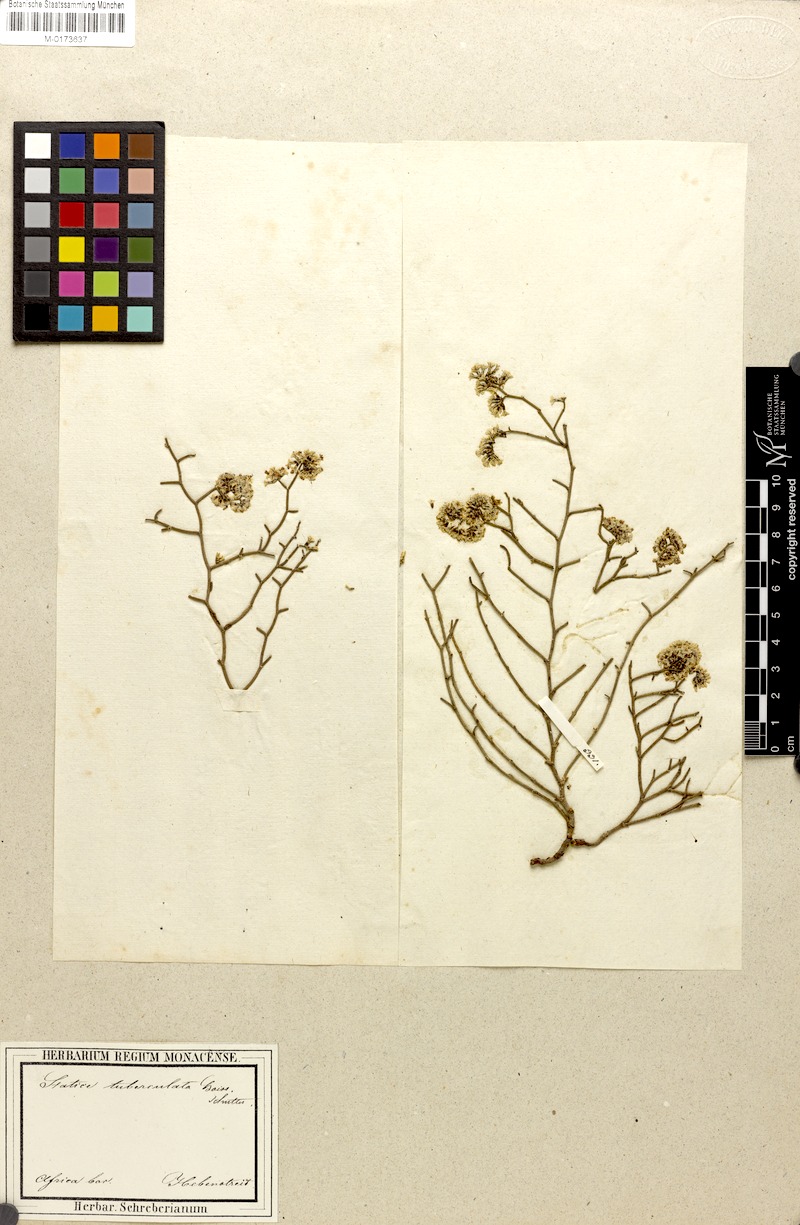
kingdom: Plantae
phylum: Tracheophyta
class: Magnoliopsida
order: Caryophyllales
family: Plumbaginaceae
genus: Limonium
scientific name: Limonium tuberculatum
